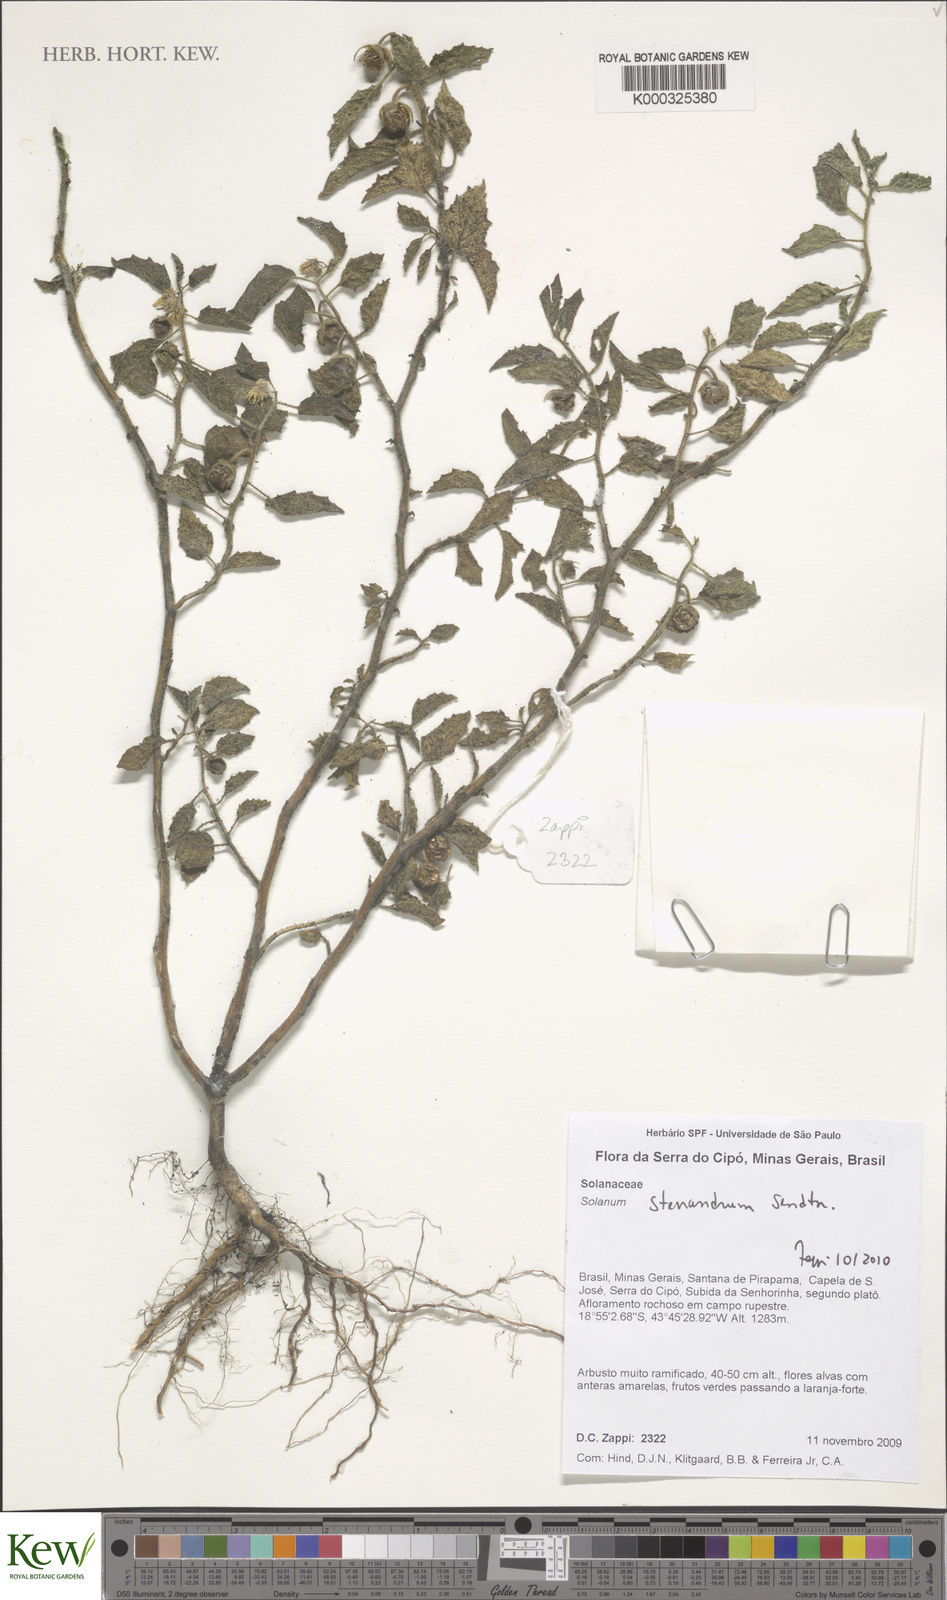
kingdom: Plantae
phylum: Tracheophyta
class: Magnoliopsida
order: Solanales
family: Solanaceae
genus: Solanum
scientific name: Solanum stenandrum
